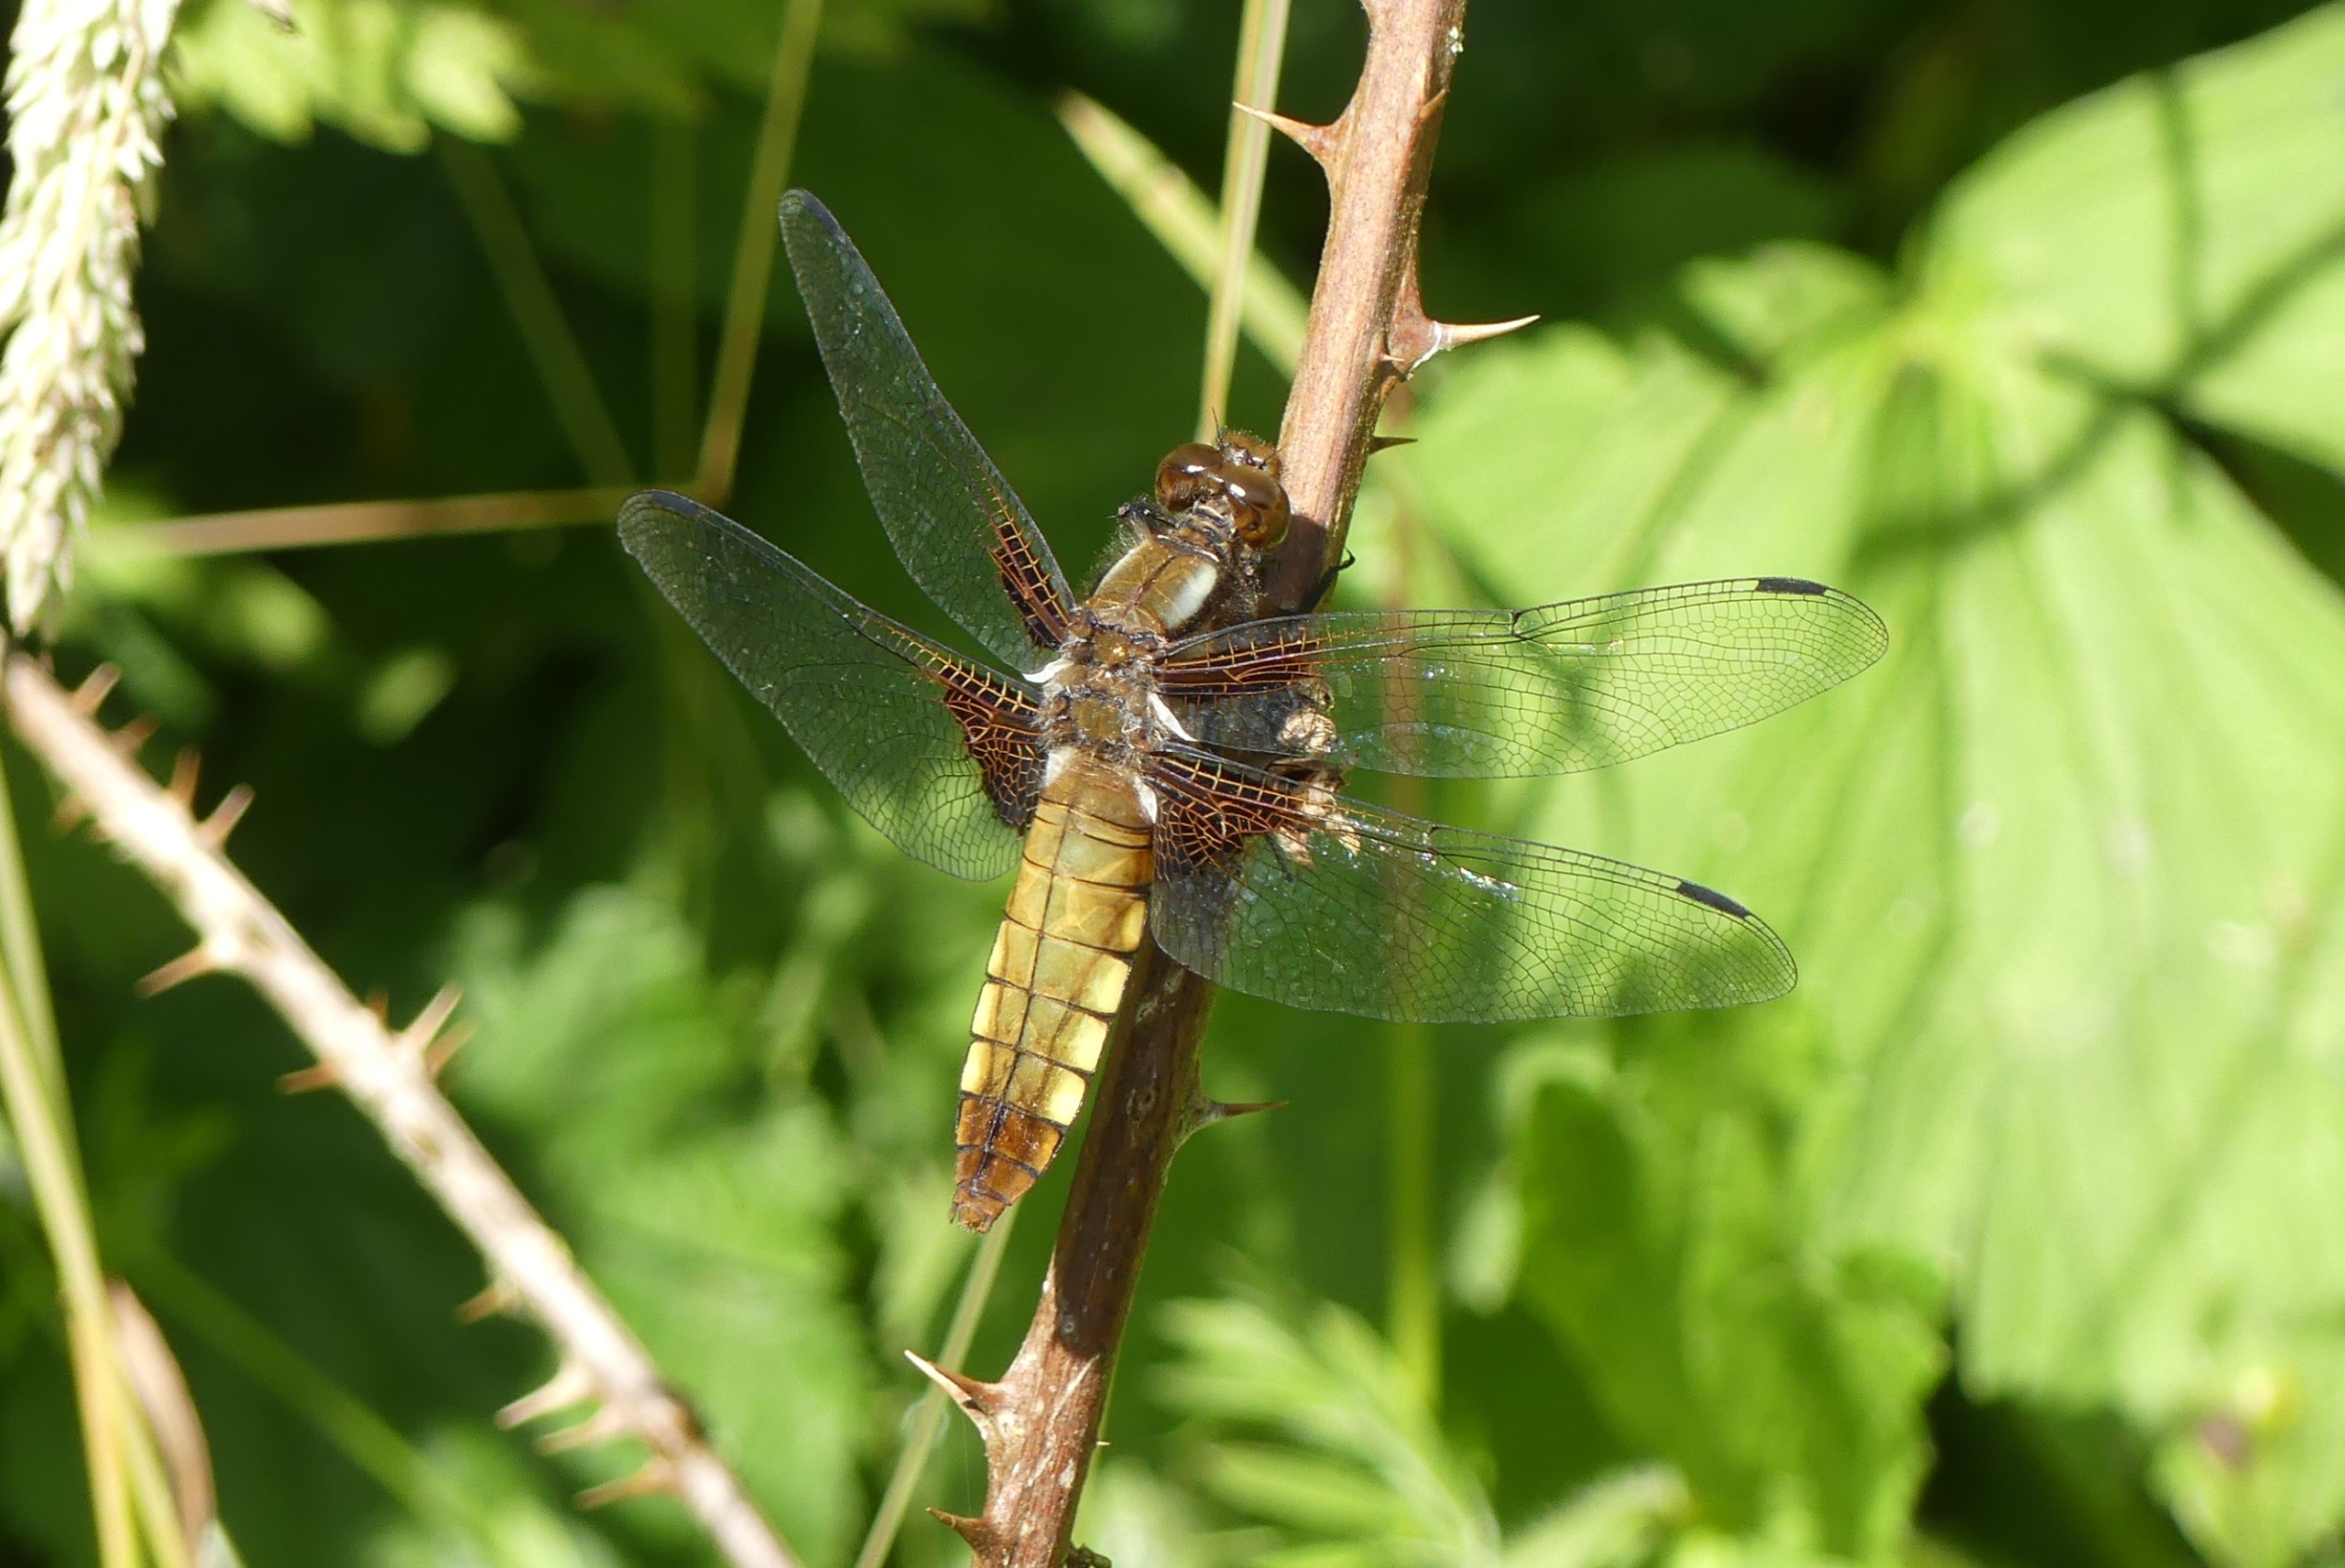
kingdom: Animalia
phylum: Arthropoda
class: Insecta
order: Odonata
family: Libellulidae
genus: Libellula
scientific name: Libellula depressa
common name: Blå libel
